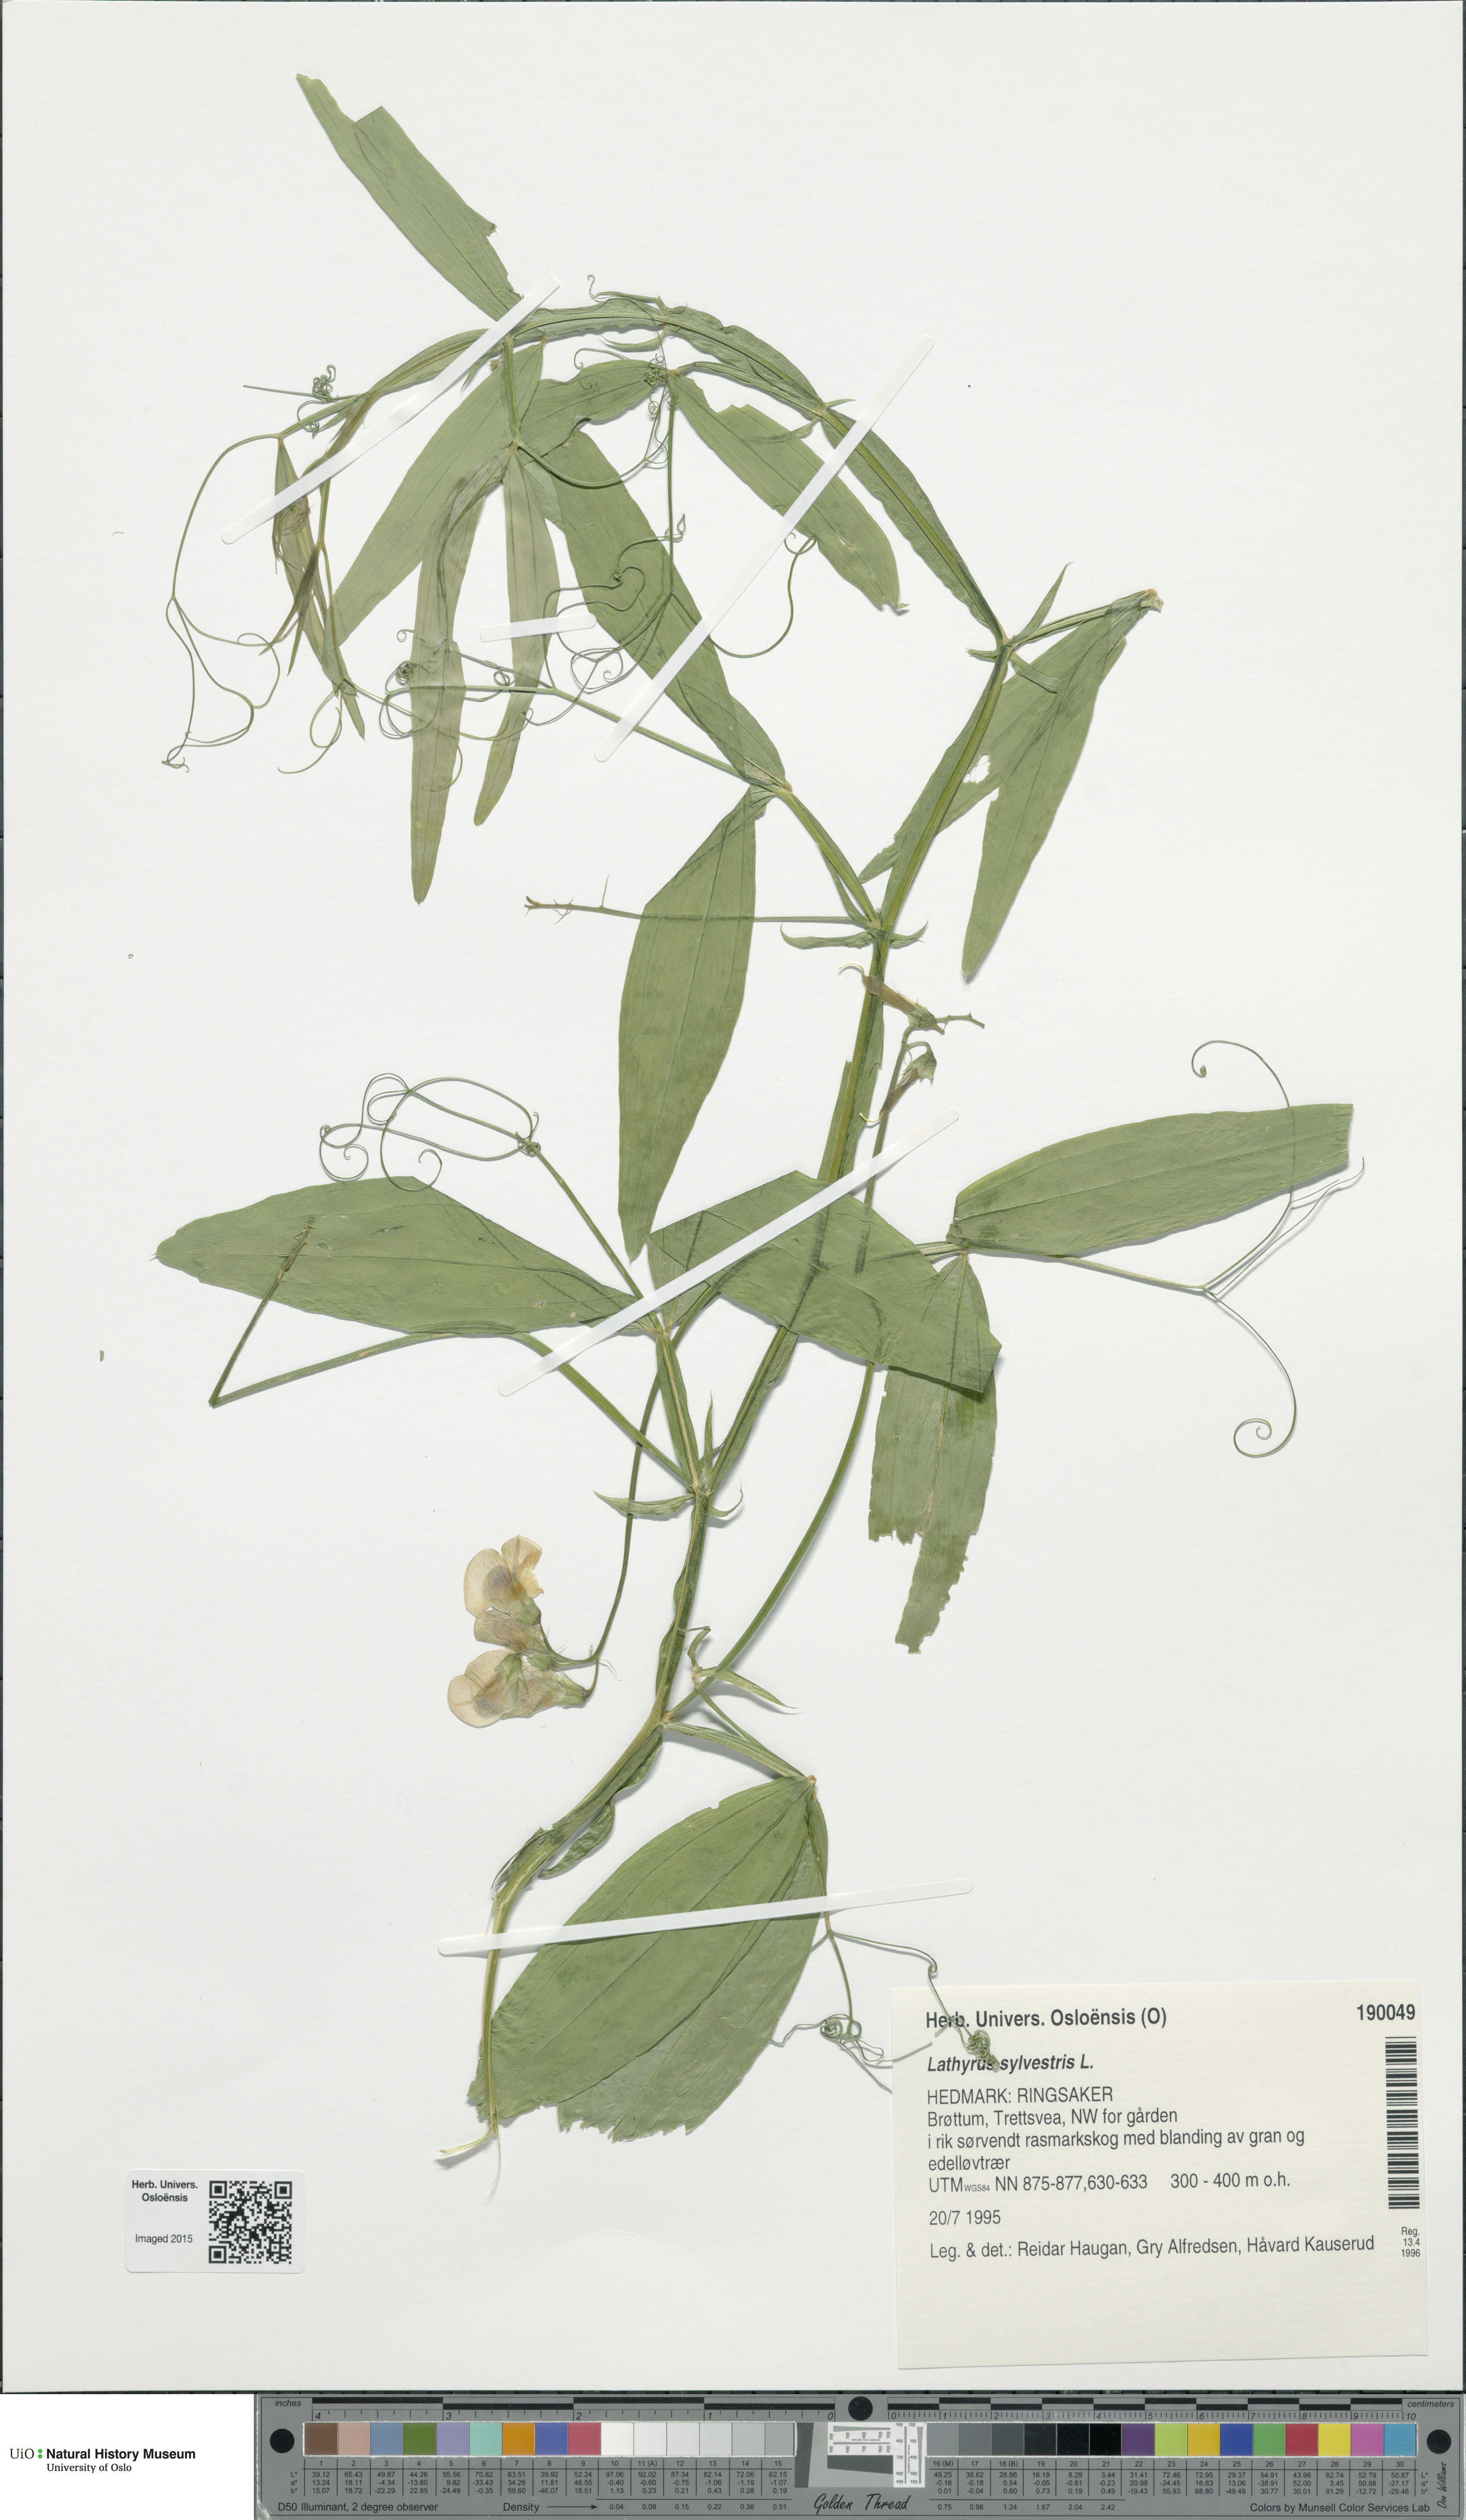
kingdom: Plantae
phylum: Tracheophyta
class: Magnoliopsida
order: Fabales
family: Fabaceae
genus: Lathyrus
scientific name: Lathyrus sylvestris
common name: Flat pea
